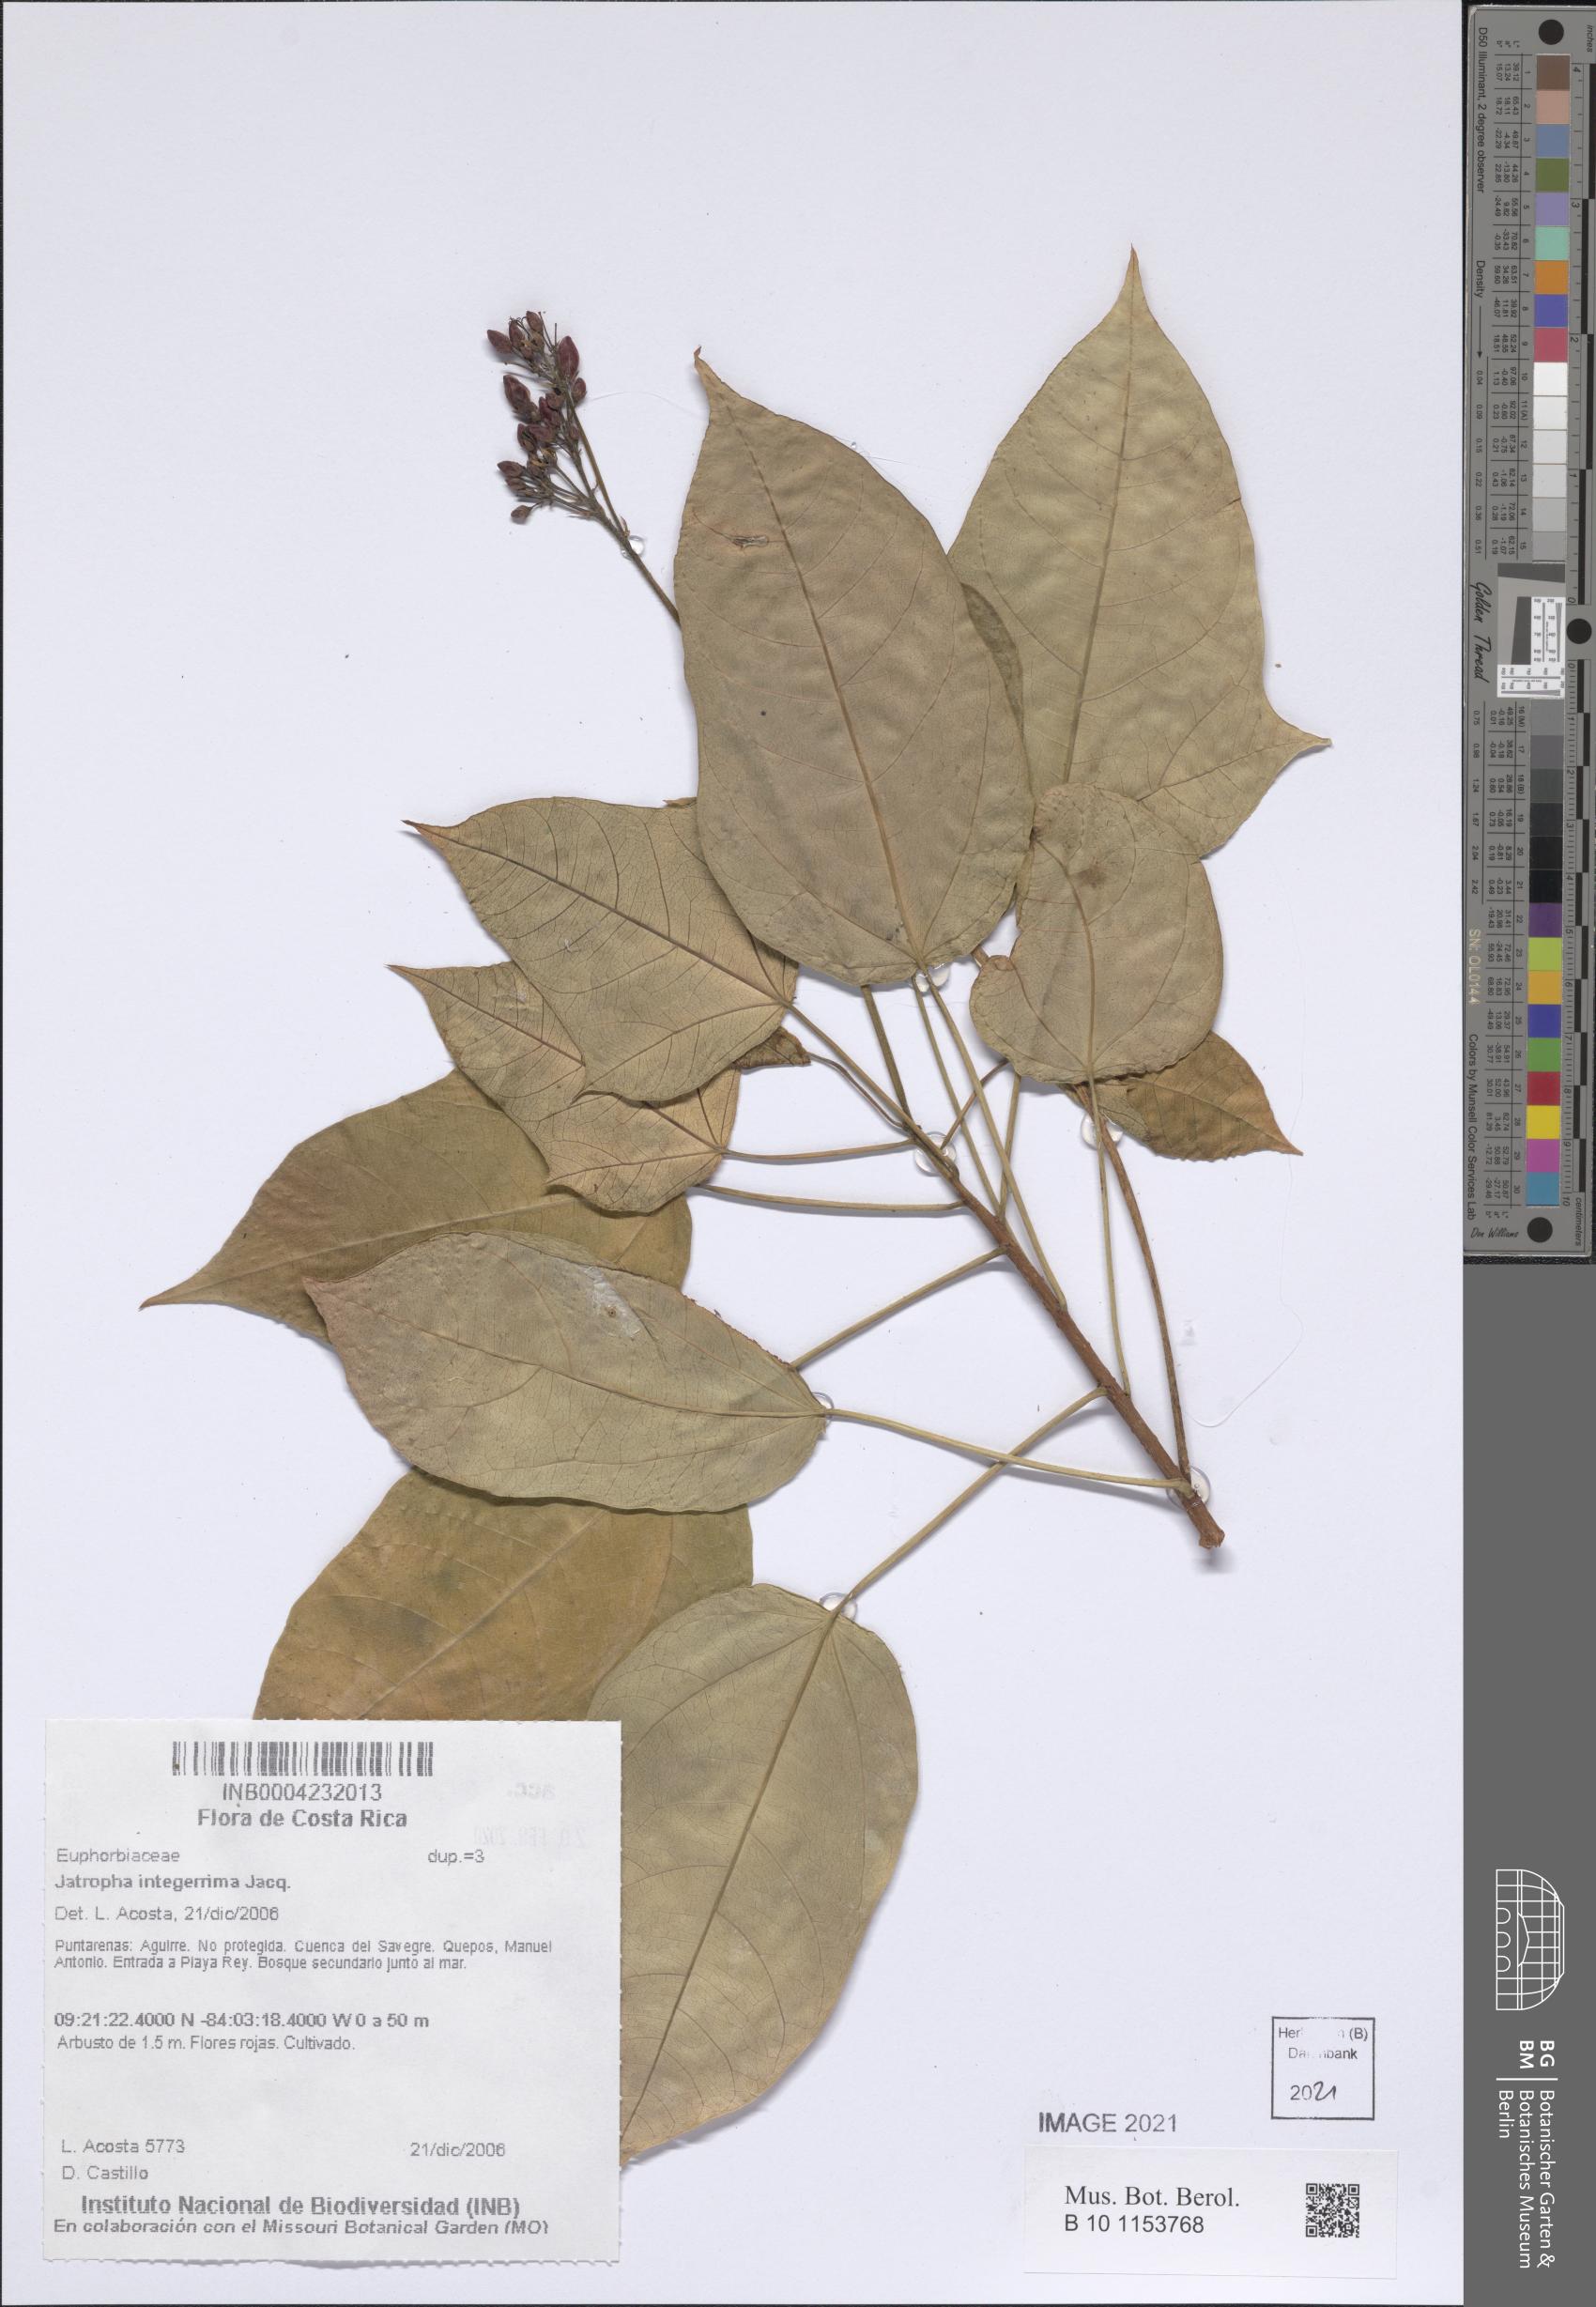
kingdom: Plantae
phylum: Tracheophyta
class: Magnoliopsida
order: Malpighiales
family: Euphorbiaceae
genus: Jatropha
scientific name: Jatropha integerrima
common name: Peregrina
